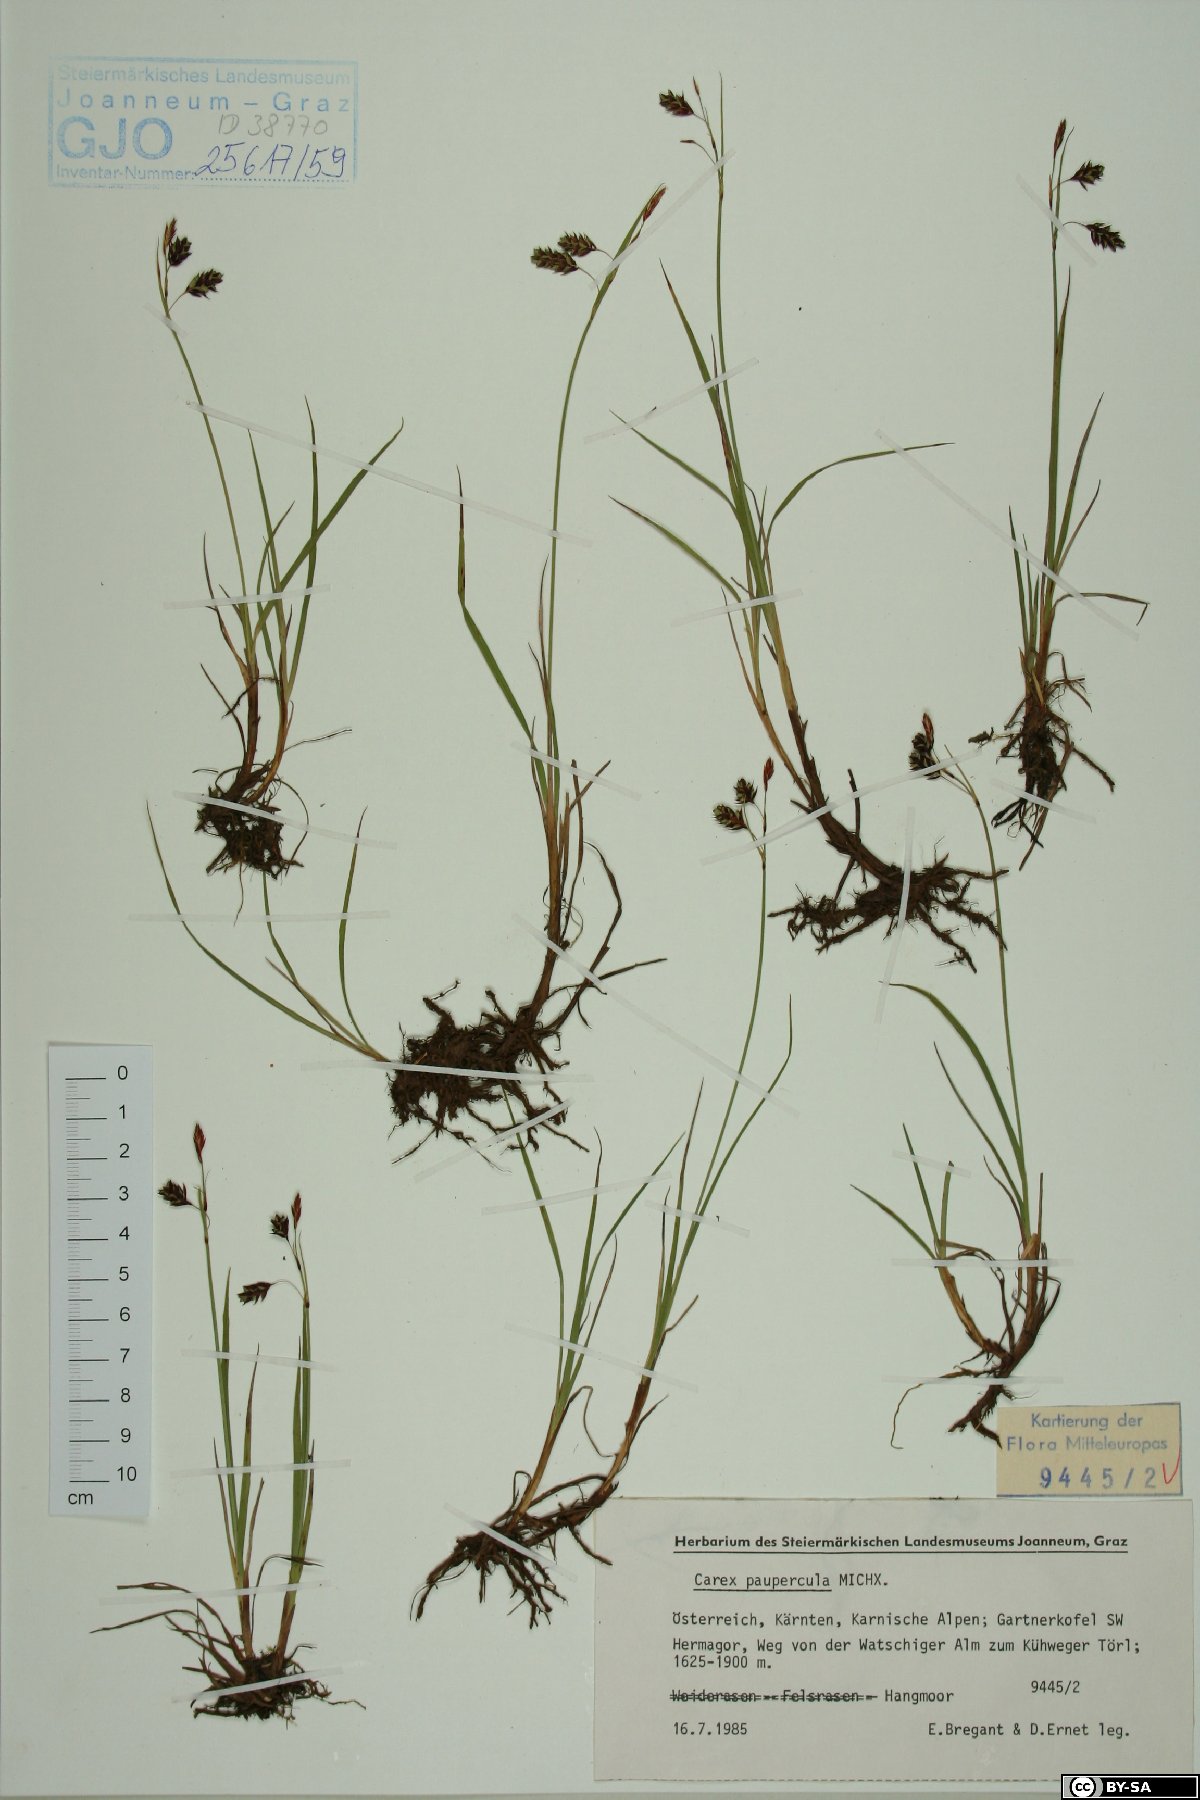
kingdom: Plantae
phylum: Tracheophyta
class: Liliopsida
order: Poales
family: Cyperaceae
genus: Carex
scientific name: Carex magellanica
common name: Bog sedge
